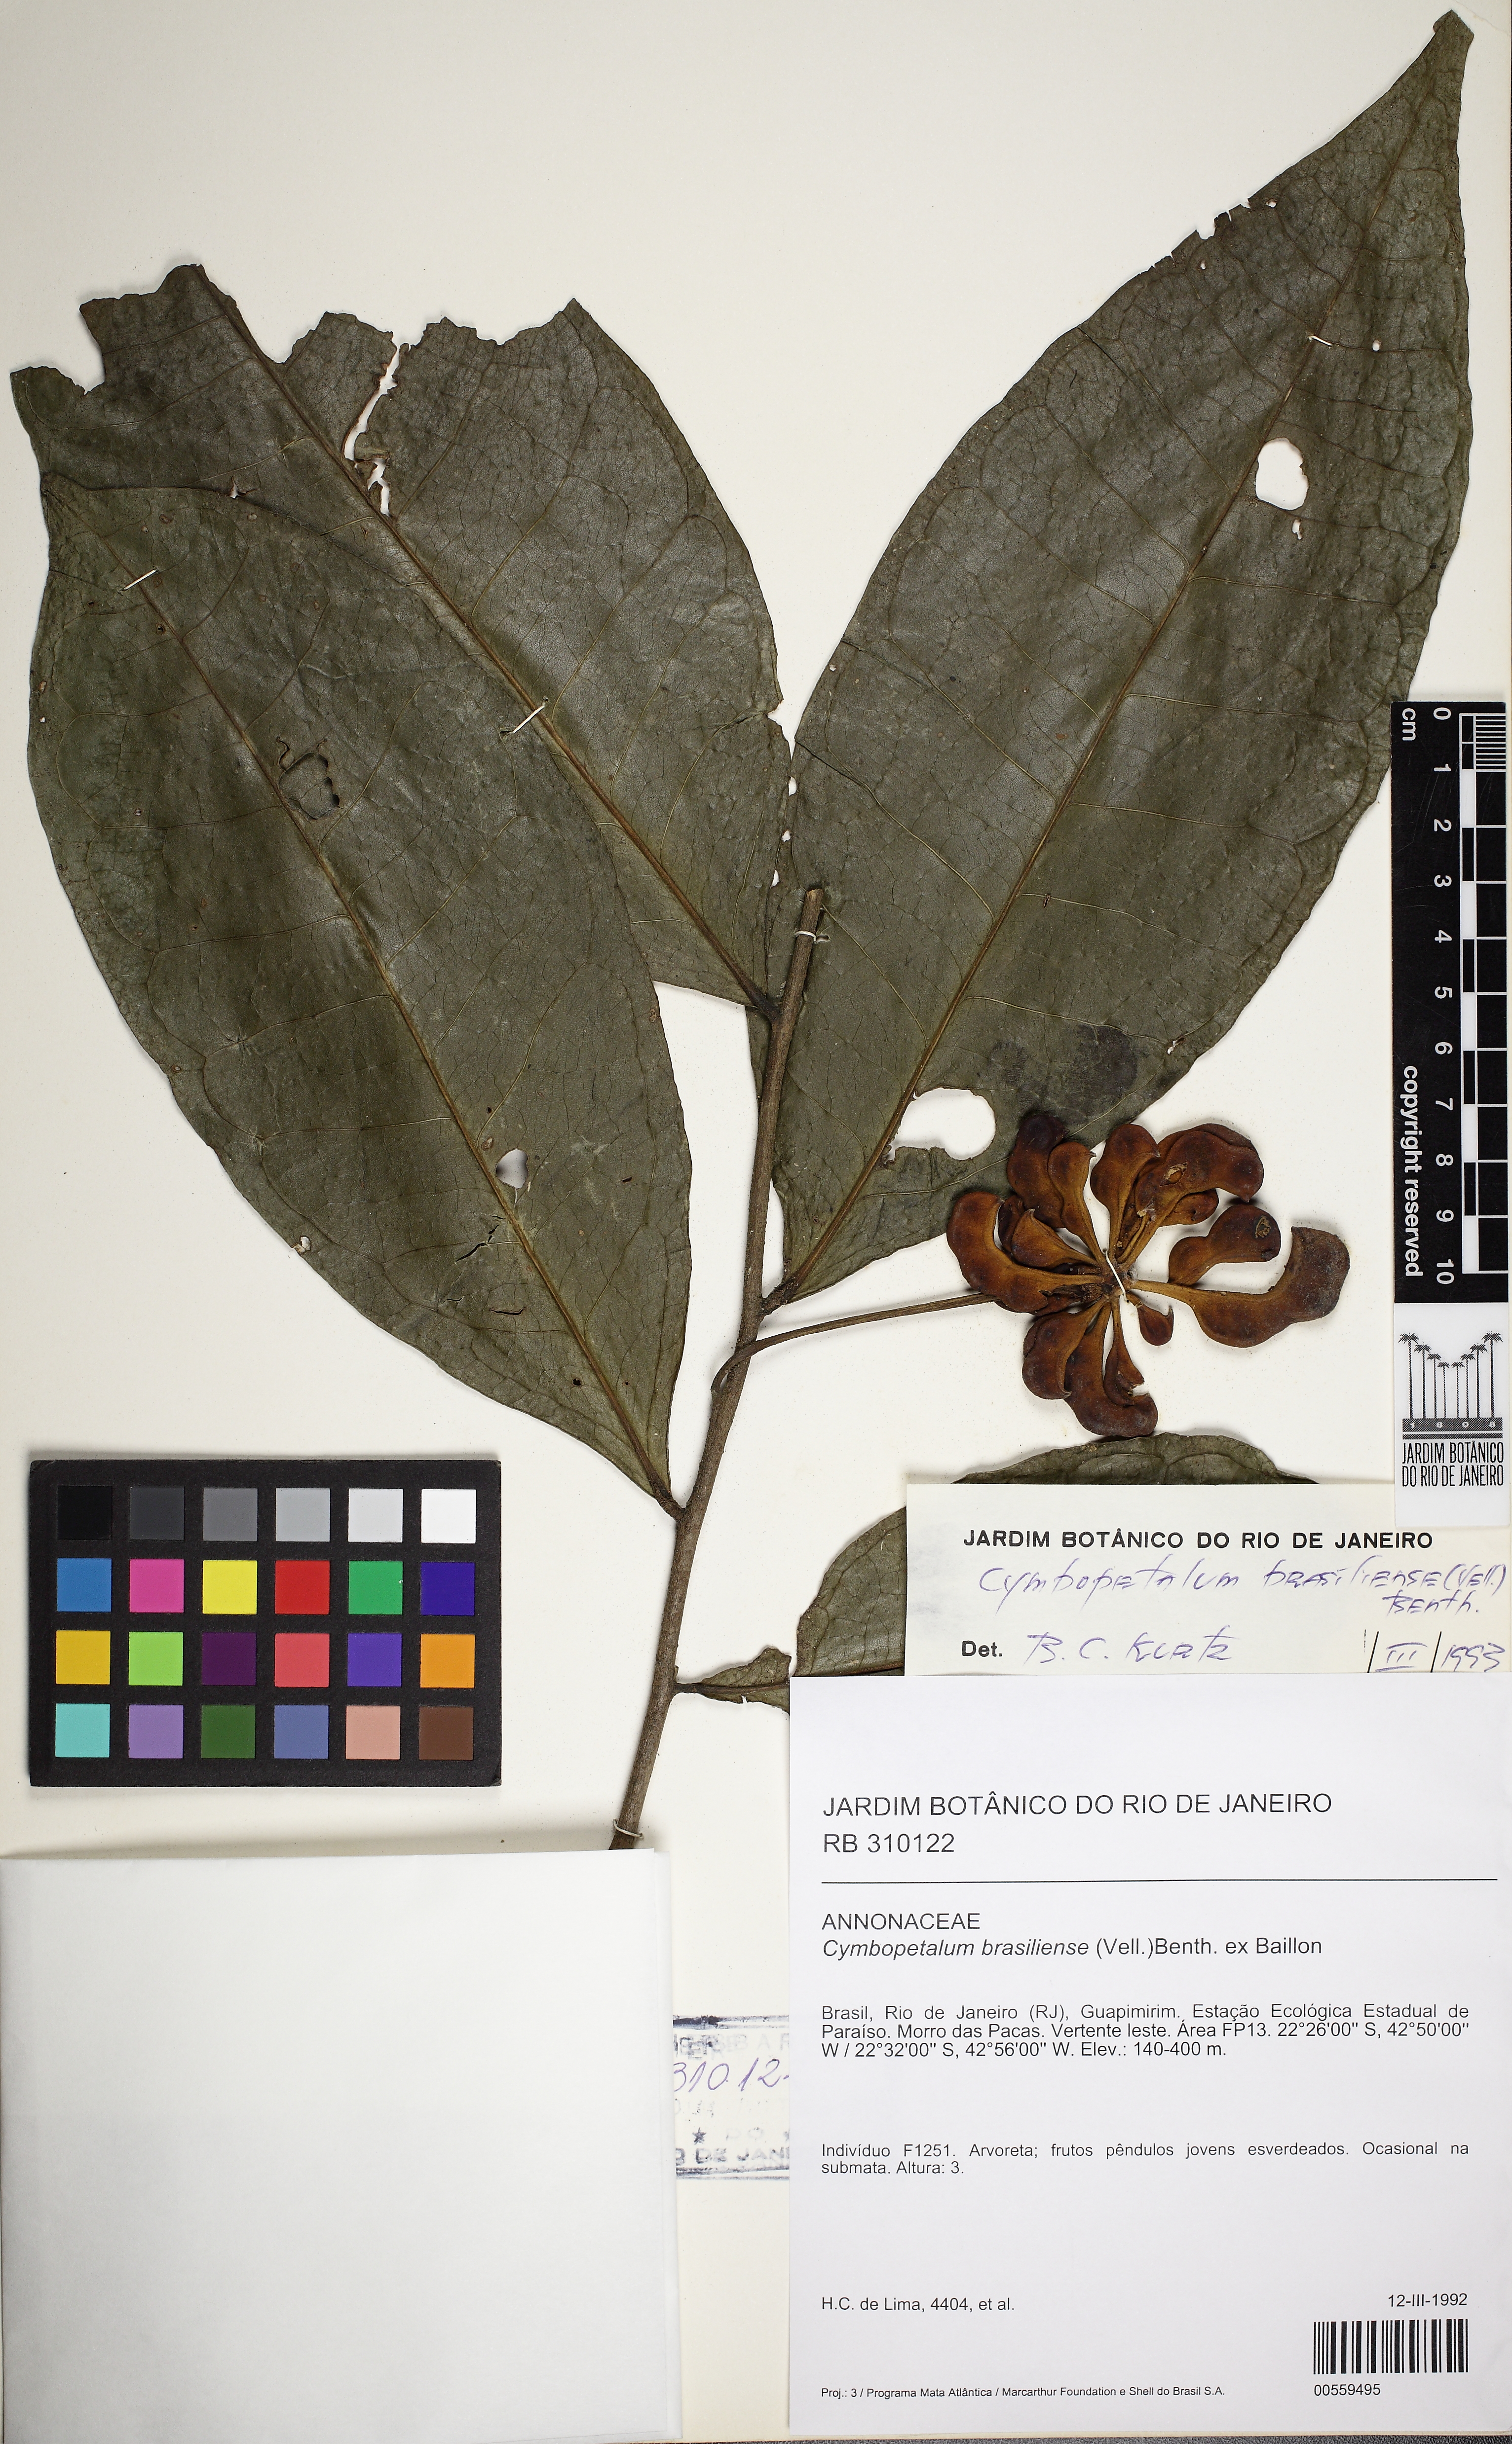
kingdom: Plantae
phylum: Tracheophyta
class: Magnoliopsida
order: Magnoliales
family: Annonaceae
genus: Cymbopetalum
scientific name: Cymbopetalum brasiliense
